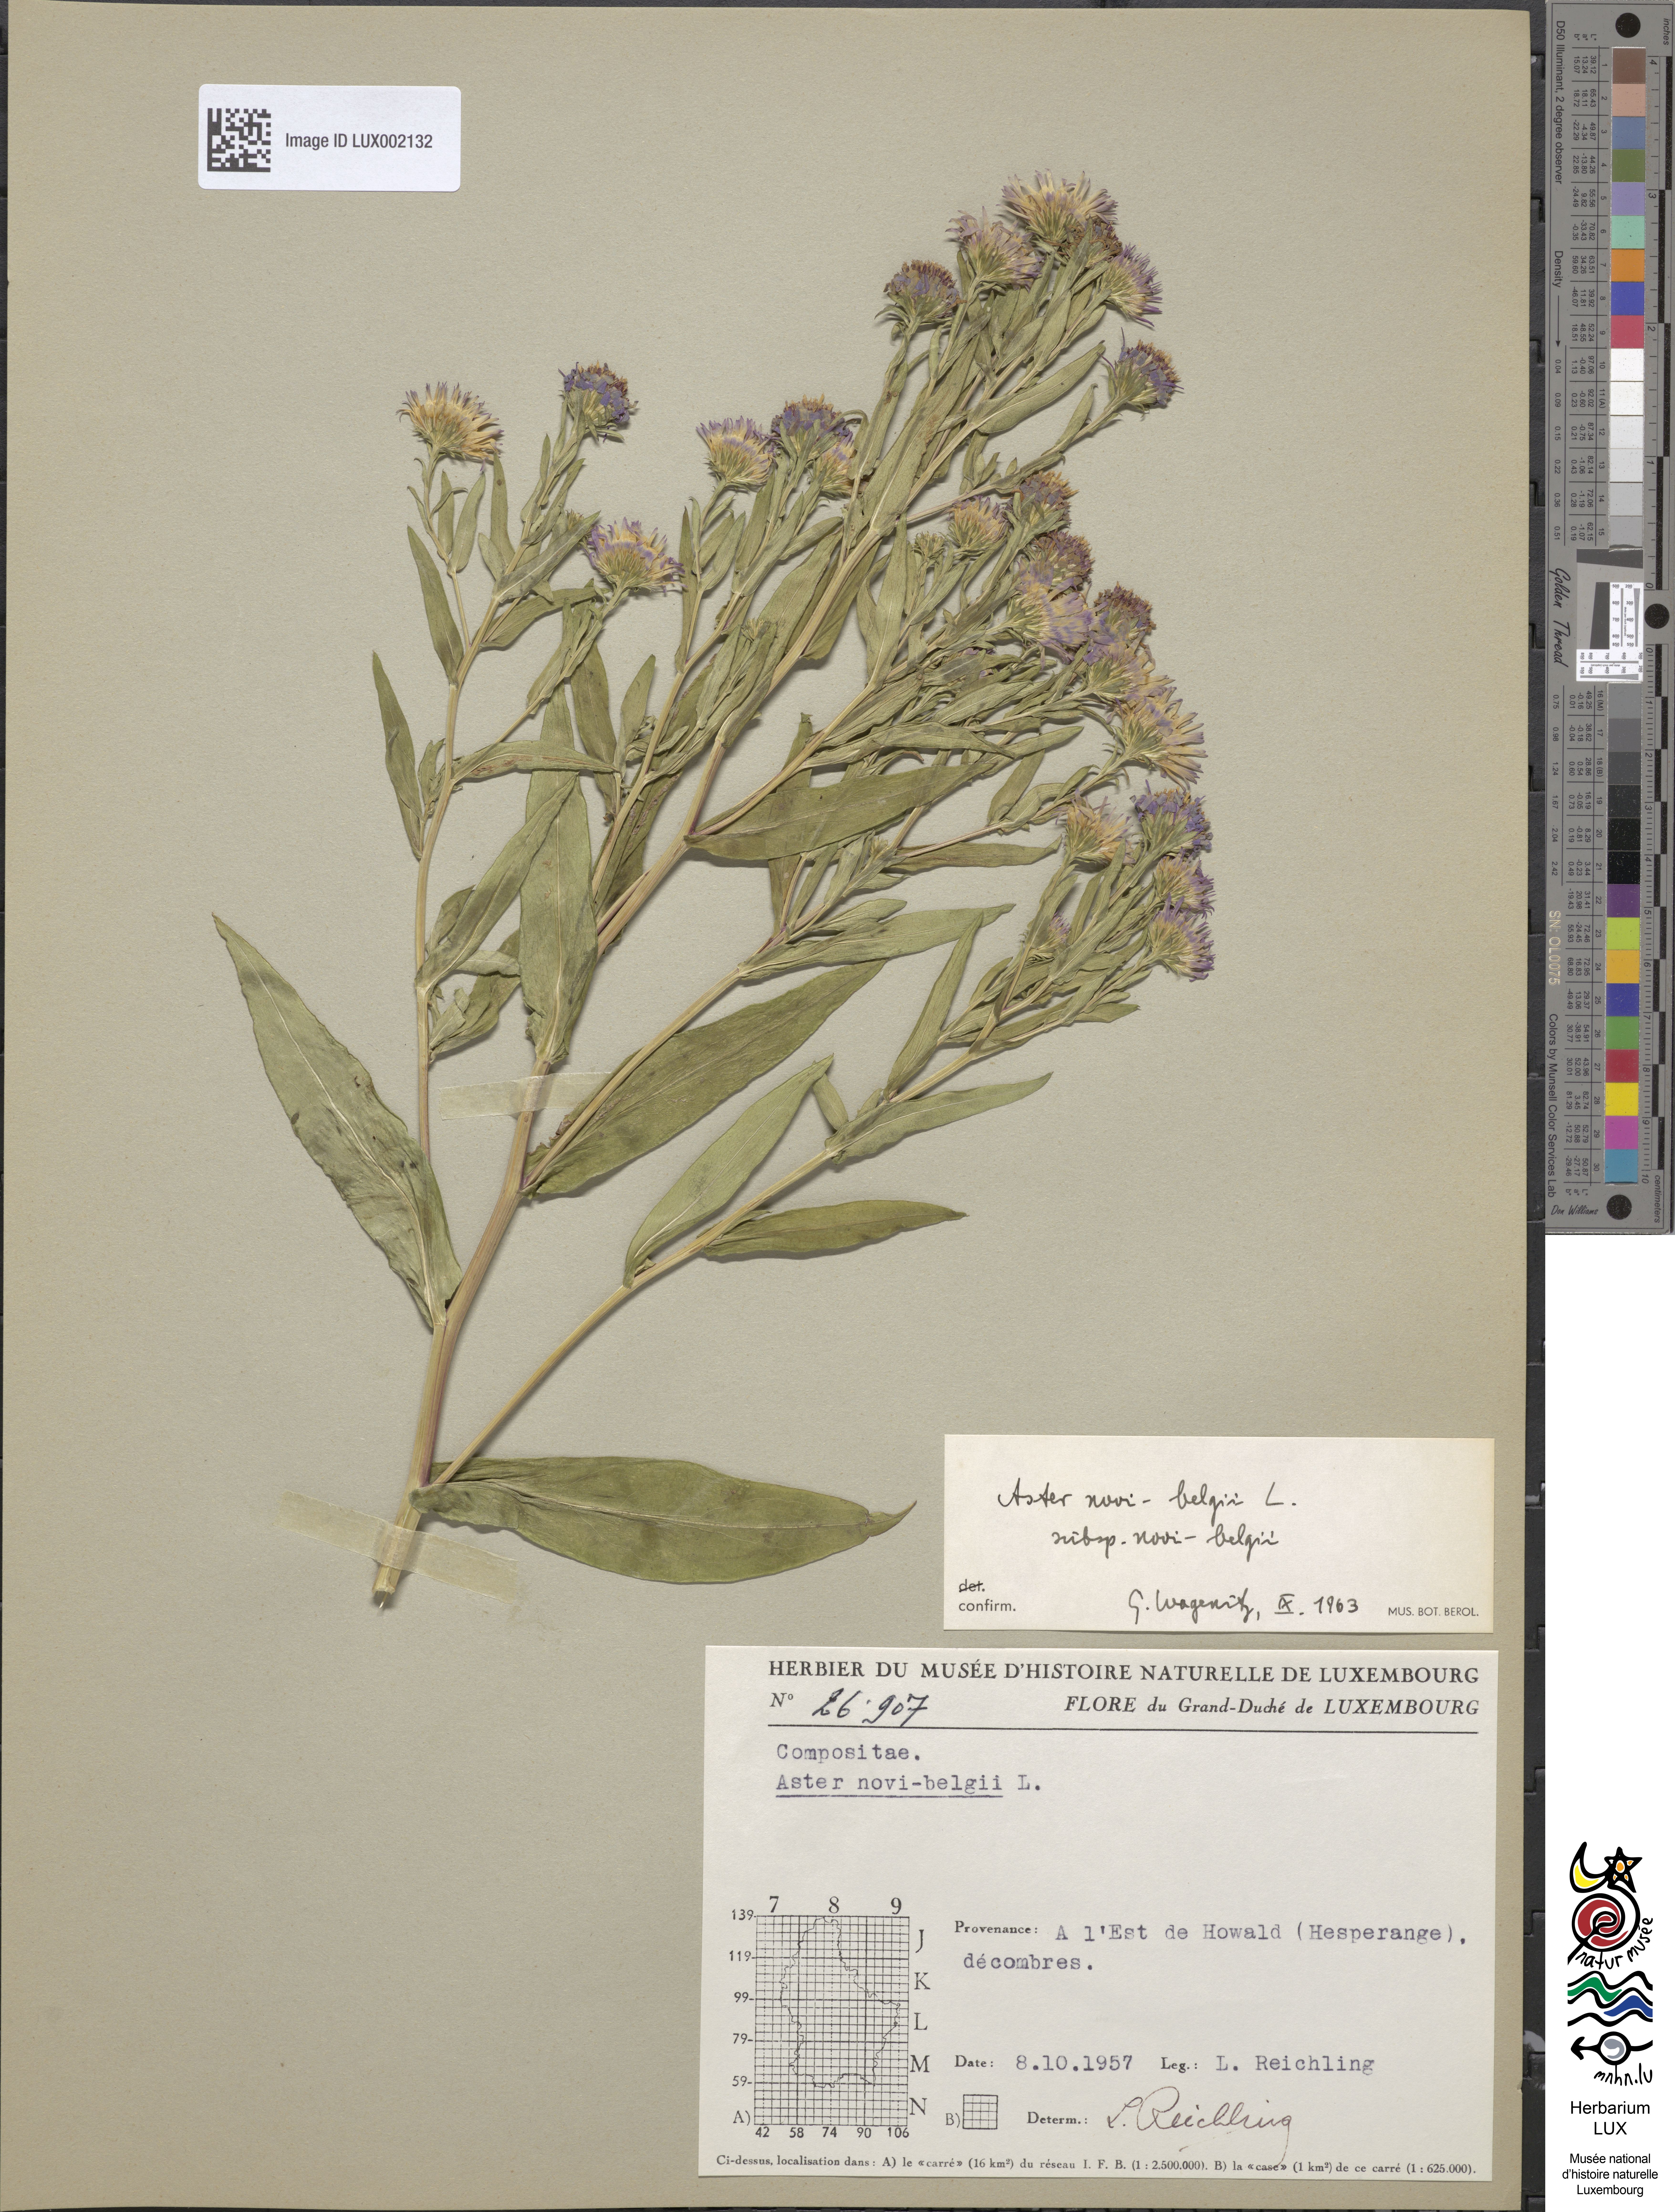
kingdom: Plantae
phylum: Tracheophyta
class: Magnoliopsida
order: Asterales
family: Asteraceae
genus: Symphyotrichum
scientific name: Symphyotrichum novi-belgii
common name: Michaelmas daisy
